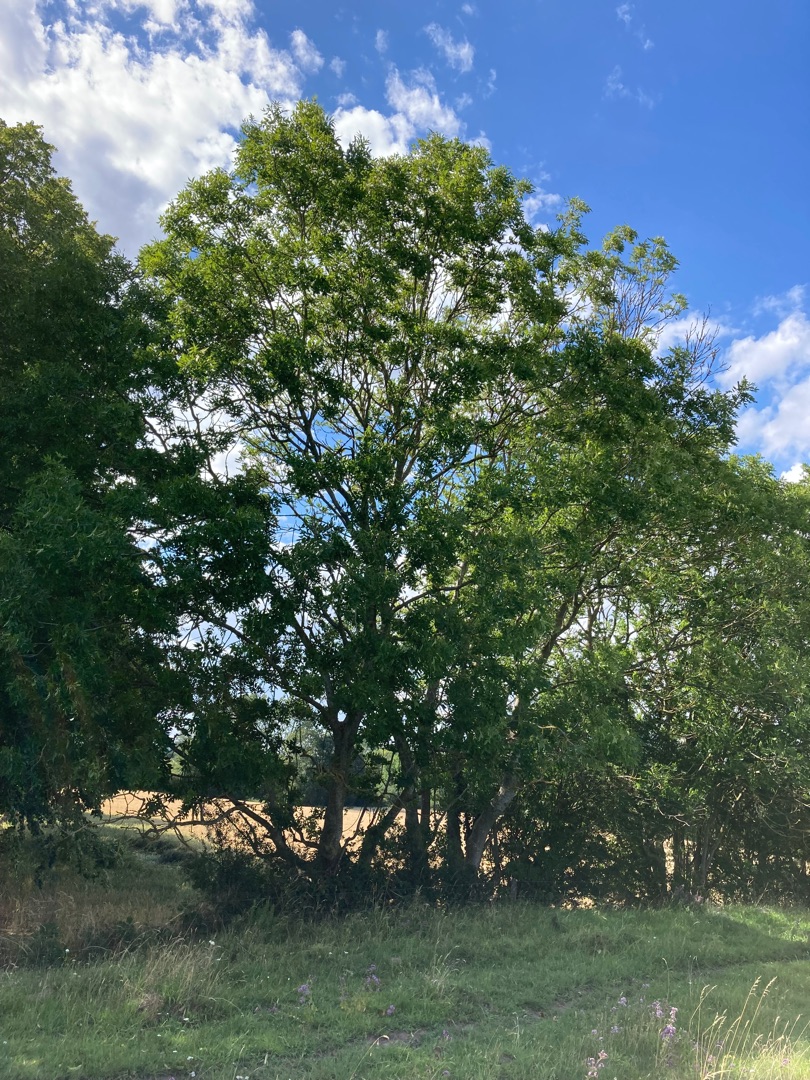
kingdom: Plantae
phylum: Tracheophyta
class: Magnoliopsida
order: Lamiales
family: Oleaceae
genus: Fraxinus
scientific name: Fraxinus excelsior
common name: Ask
